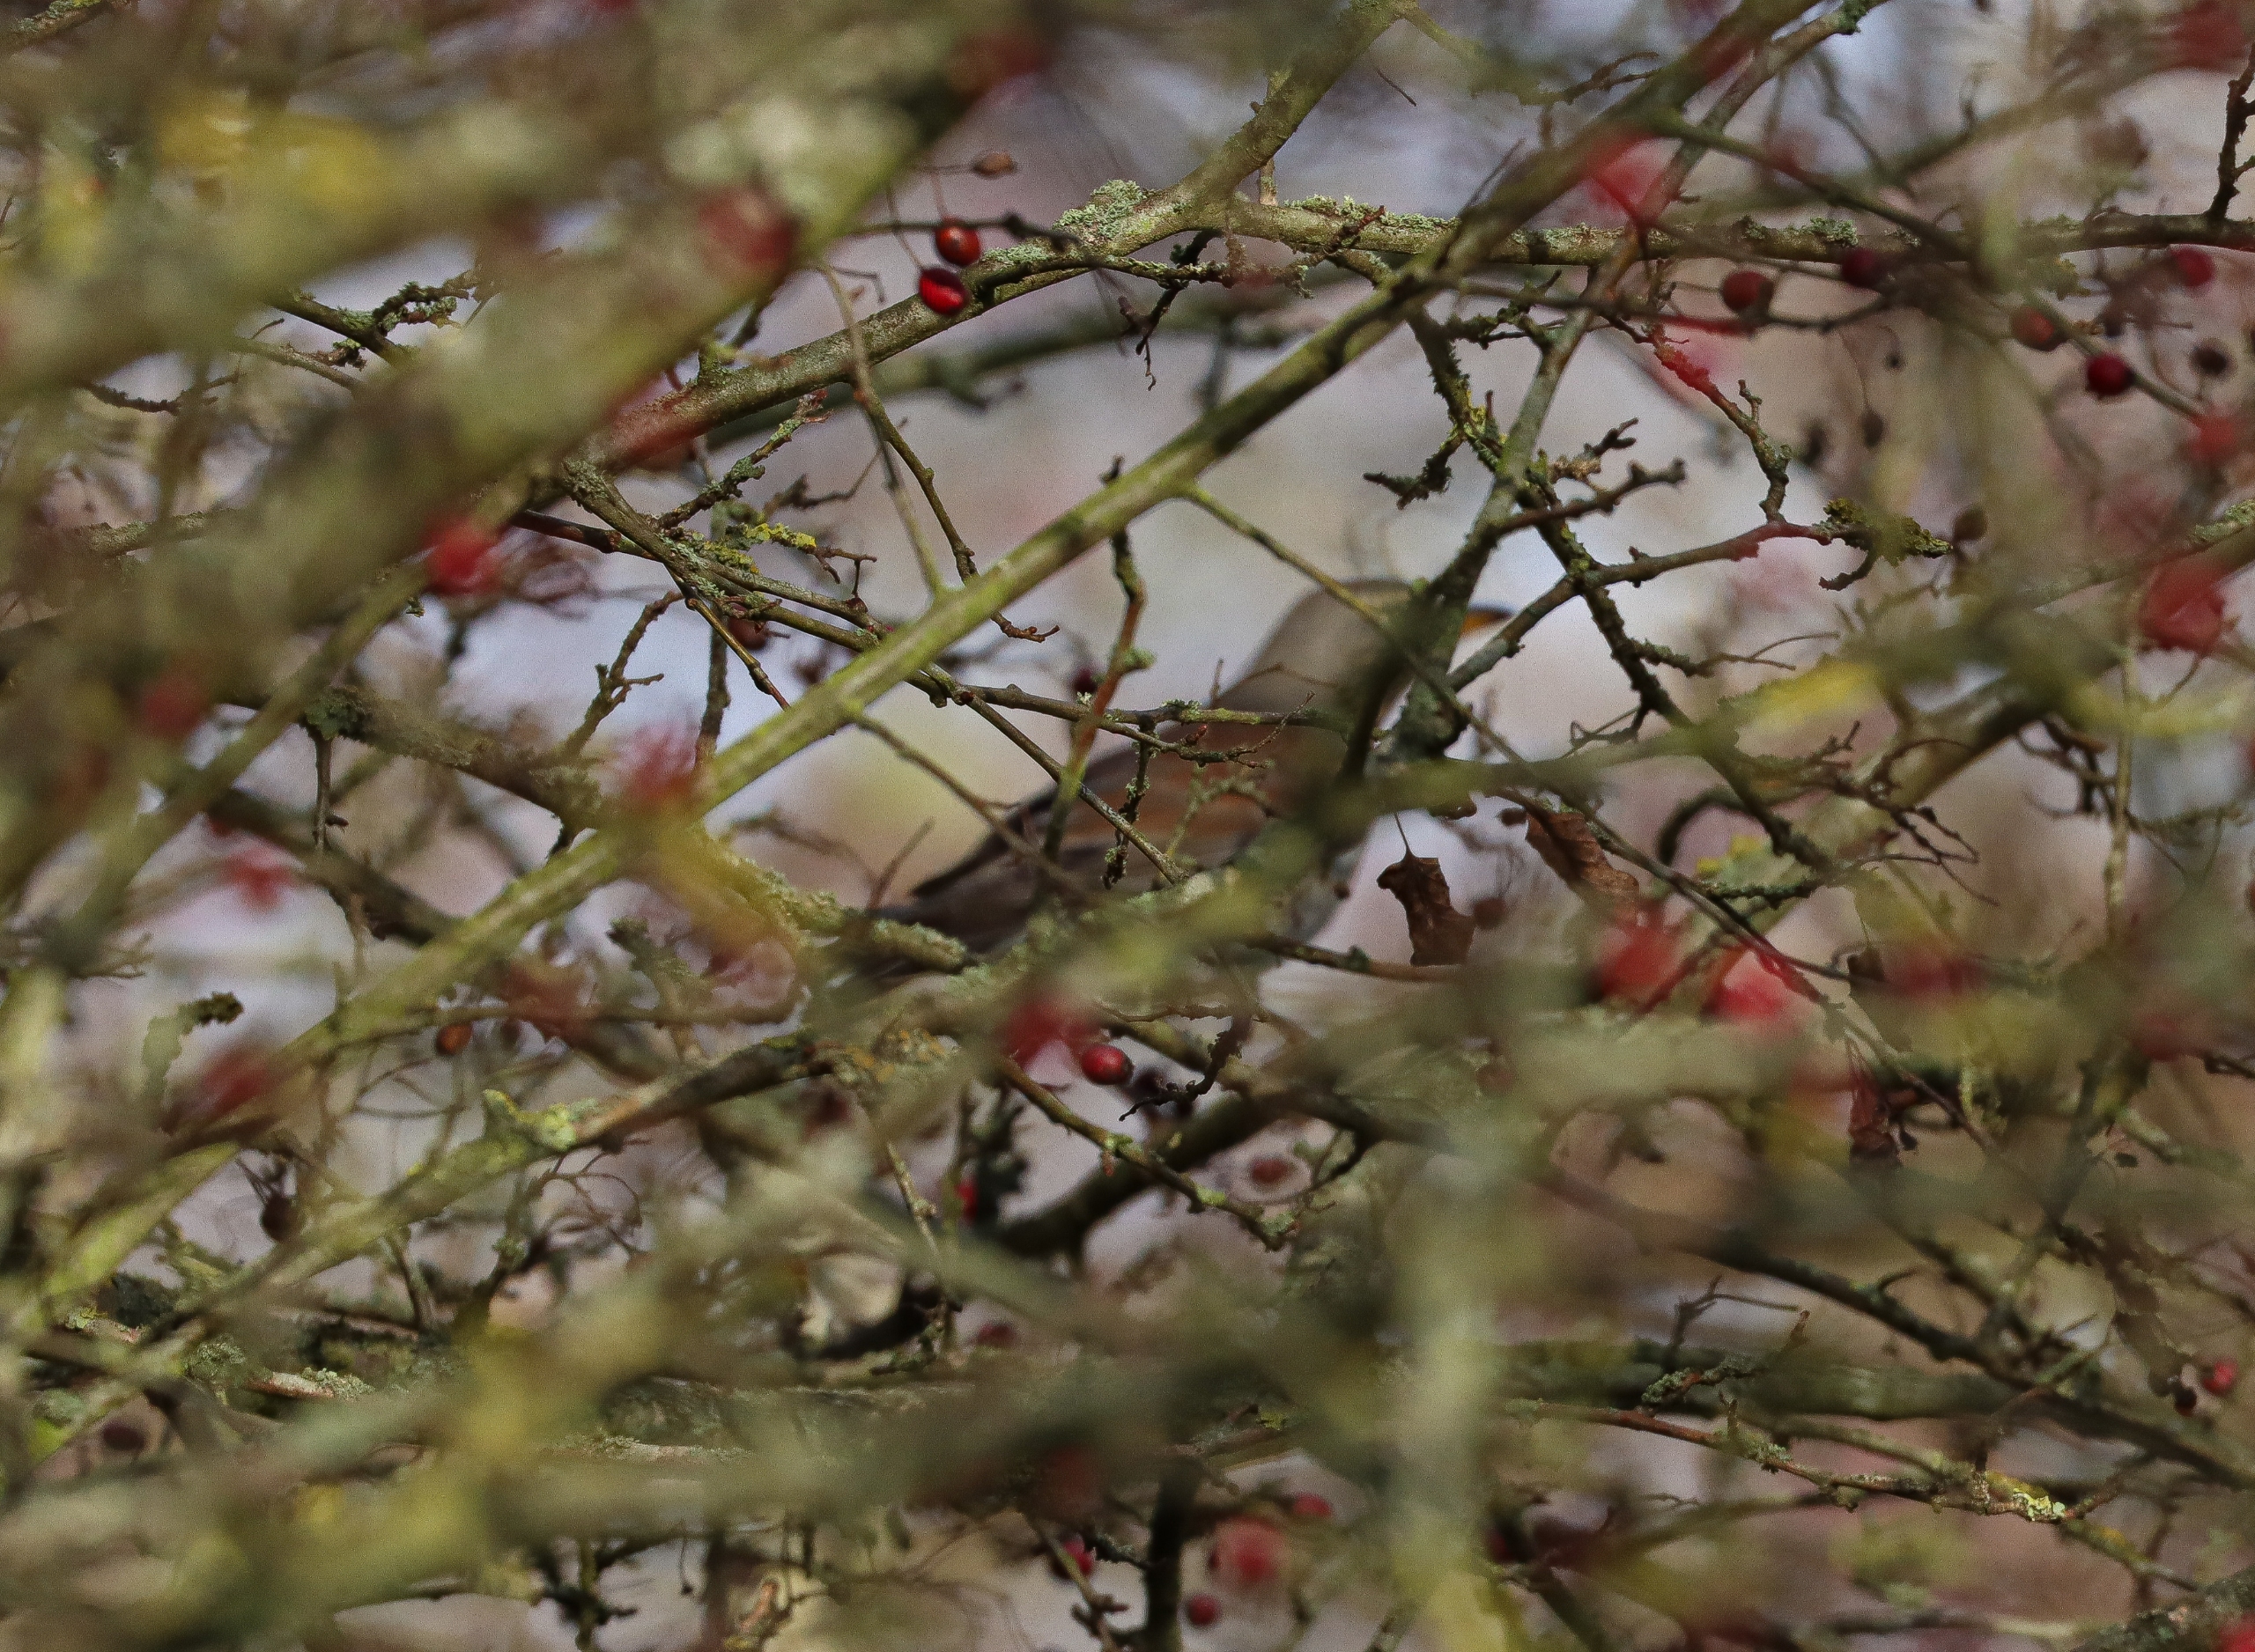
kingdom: Animalia
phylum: Chordata
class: Aves
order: Passeriformes
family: Turdidae
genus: Turdus
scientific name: Turdus pilaris
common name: Sjagger
